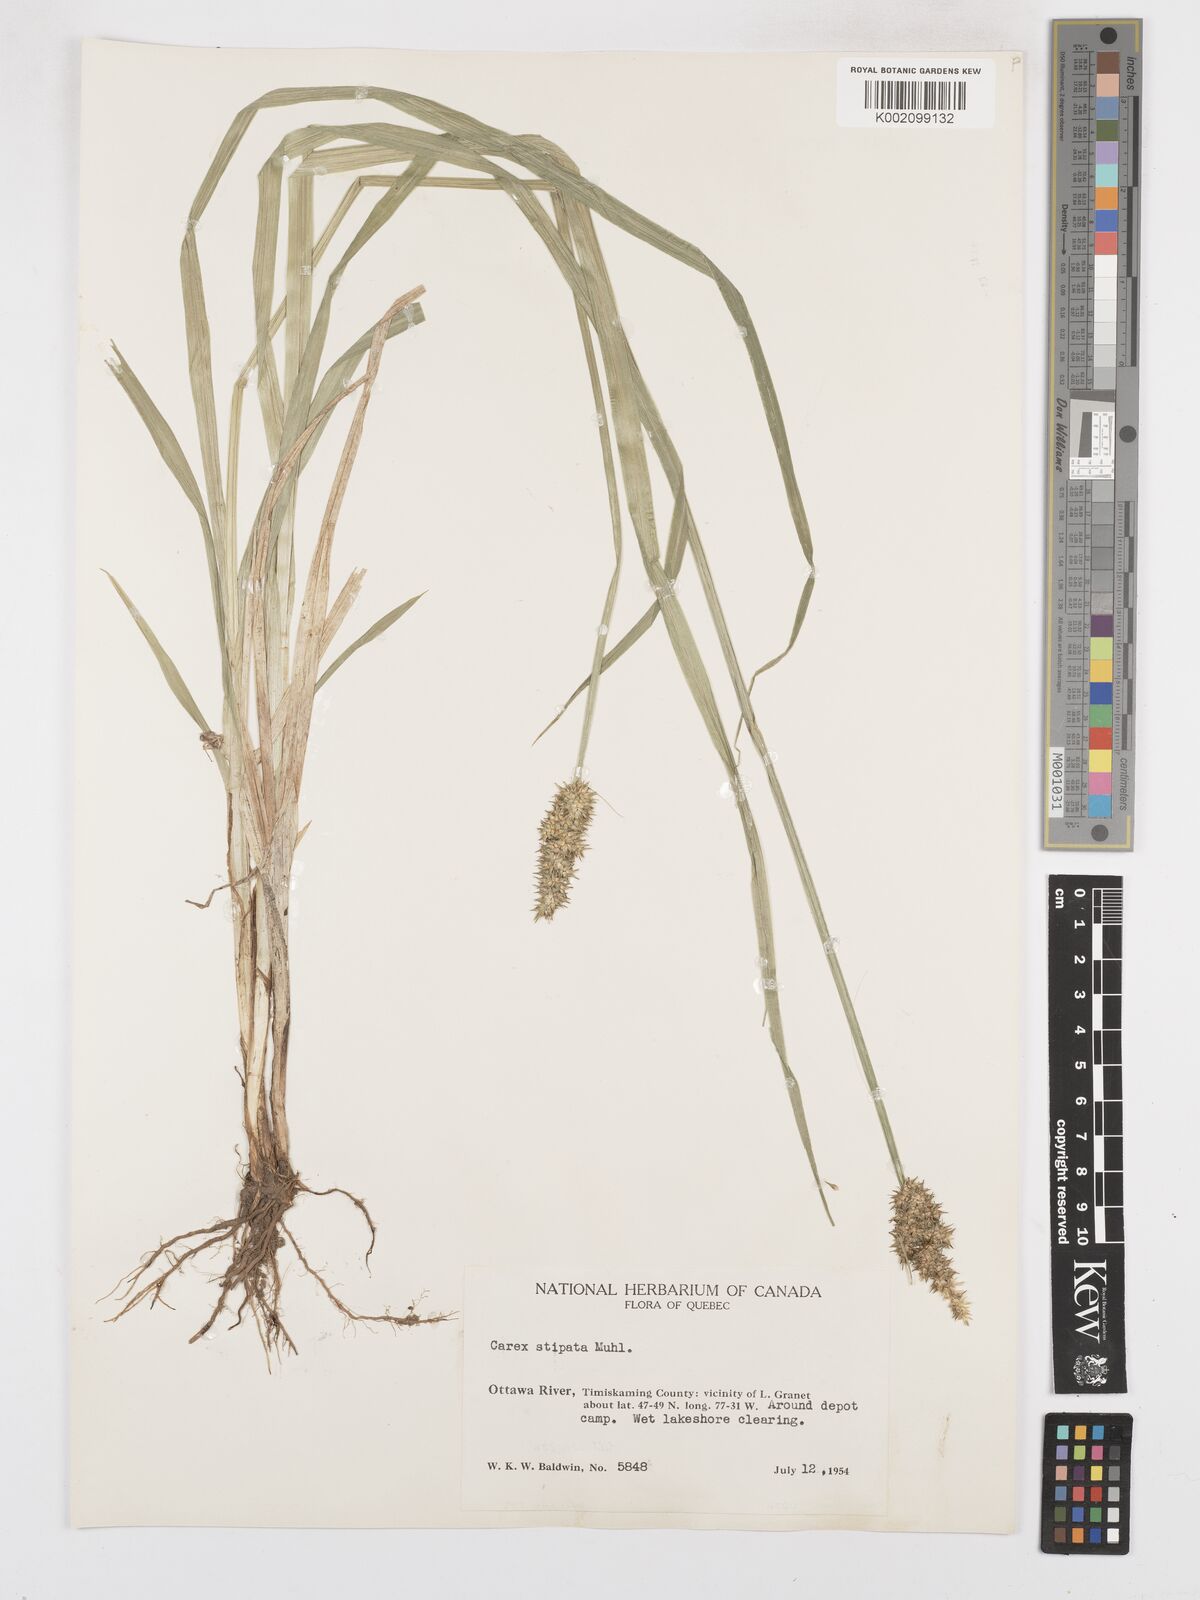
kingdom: Plantae
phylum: Tracheophyta
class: Liliopsida
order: Poales
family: Cyperaceae
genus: Carex
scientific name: Carex stipata
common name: Awl-fruited sedge
